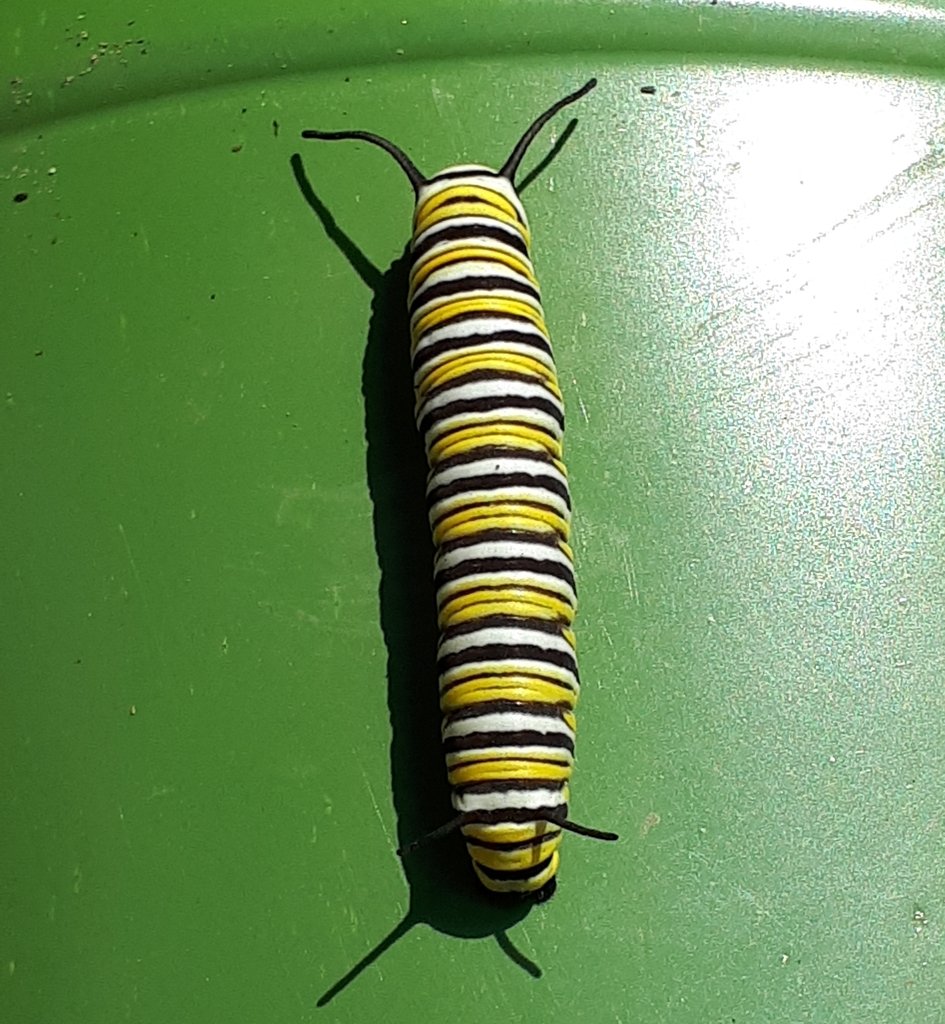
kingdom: Animalia
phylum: Arthropoda
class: Insecta
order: Lepidoptera
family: Nymphalidae
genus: Danaus
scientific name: Danaus plexippus
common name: Monarch
